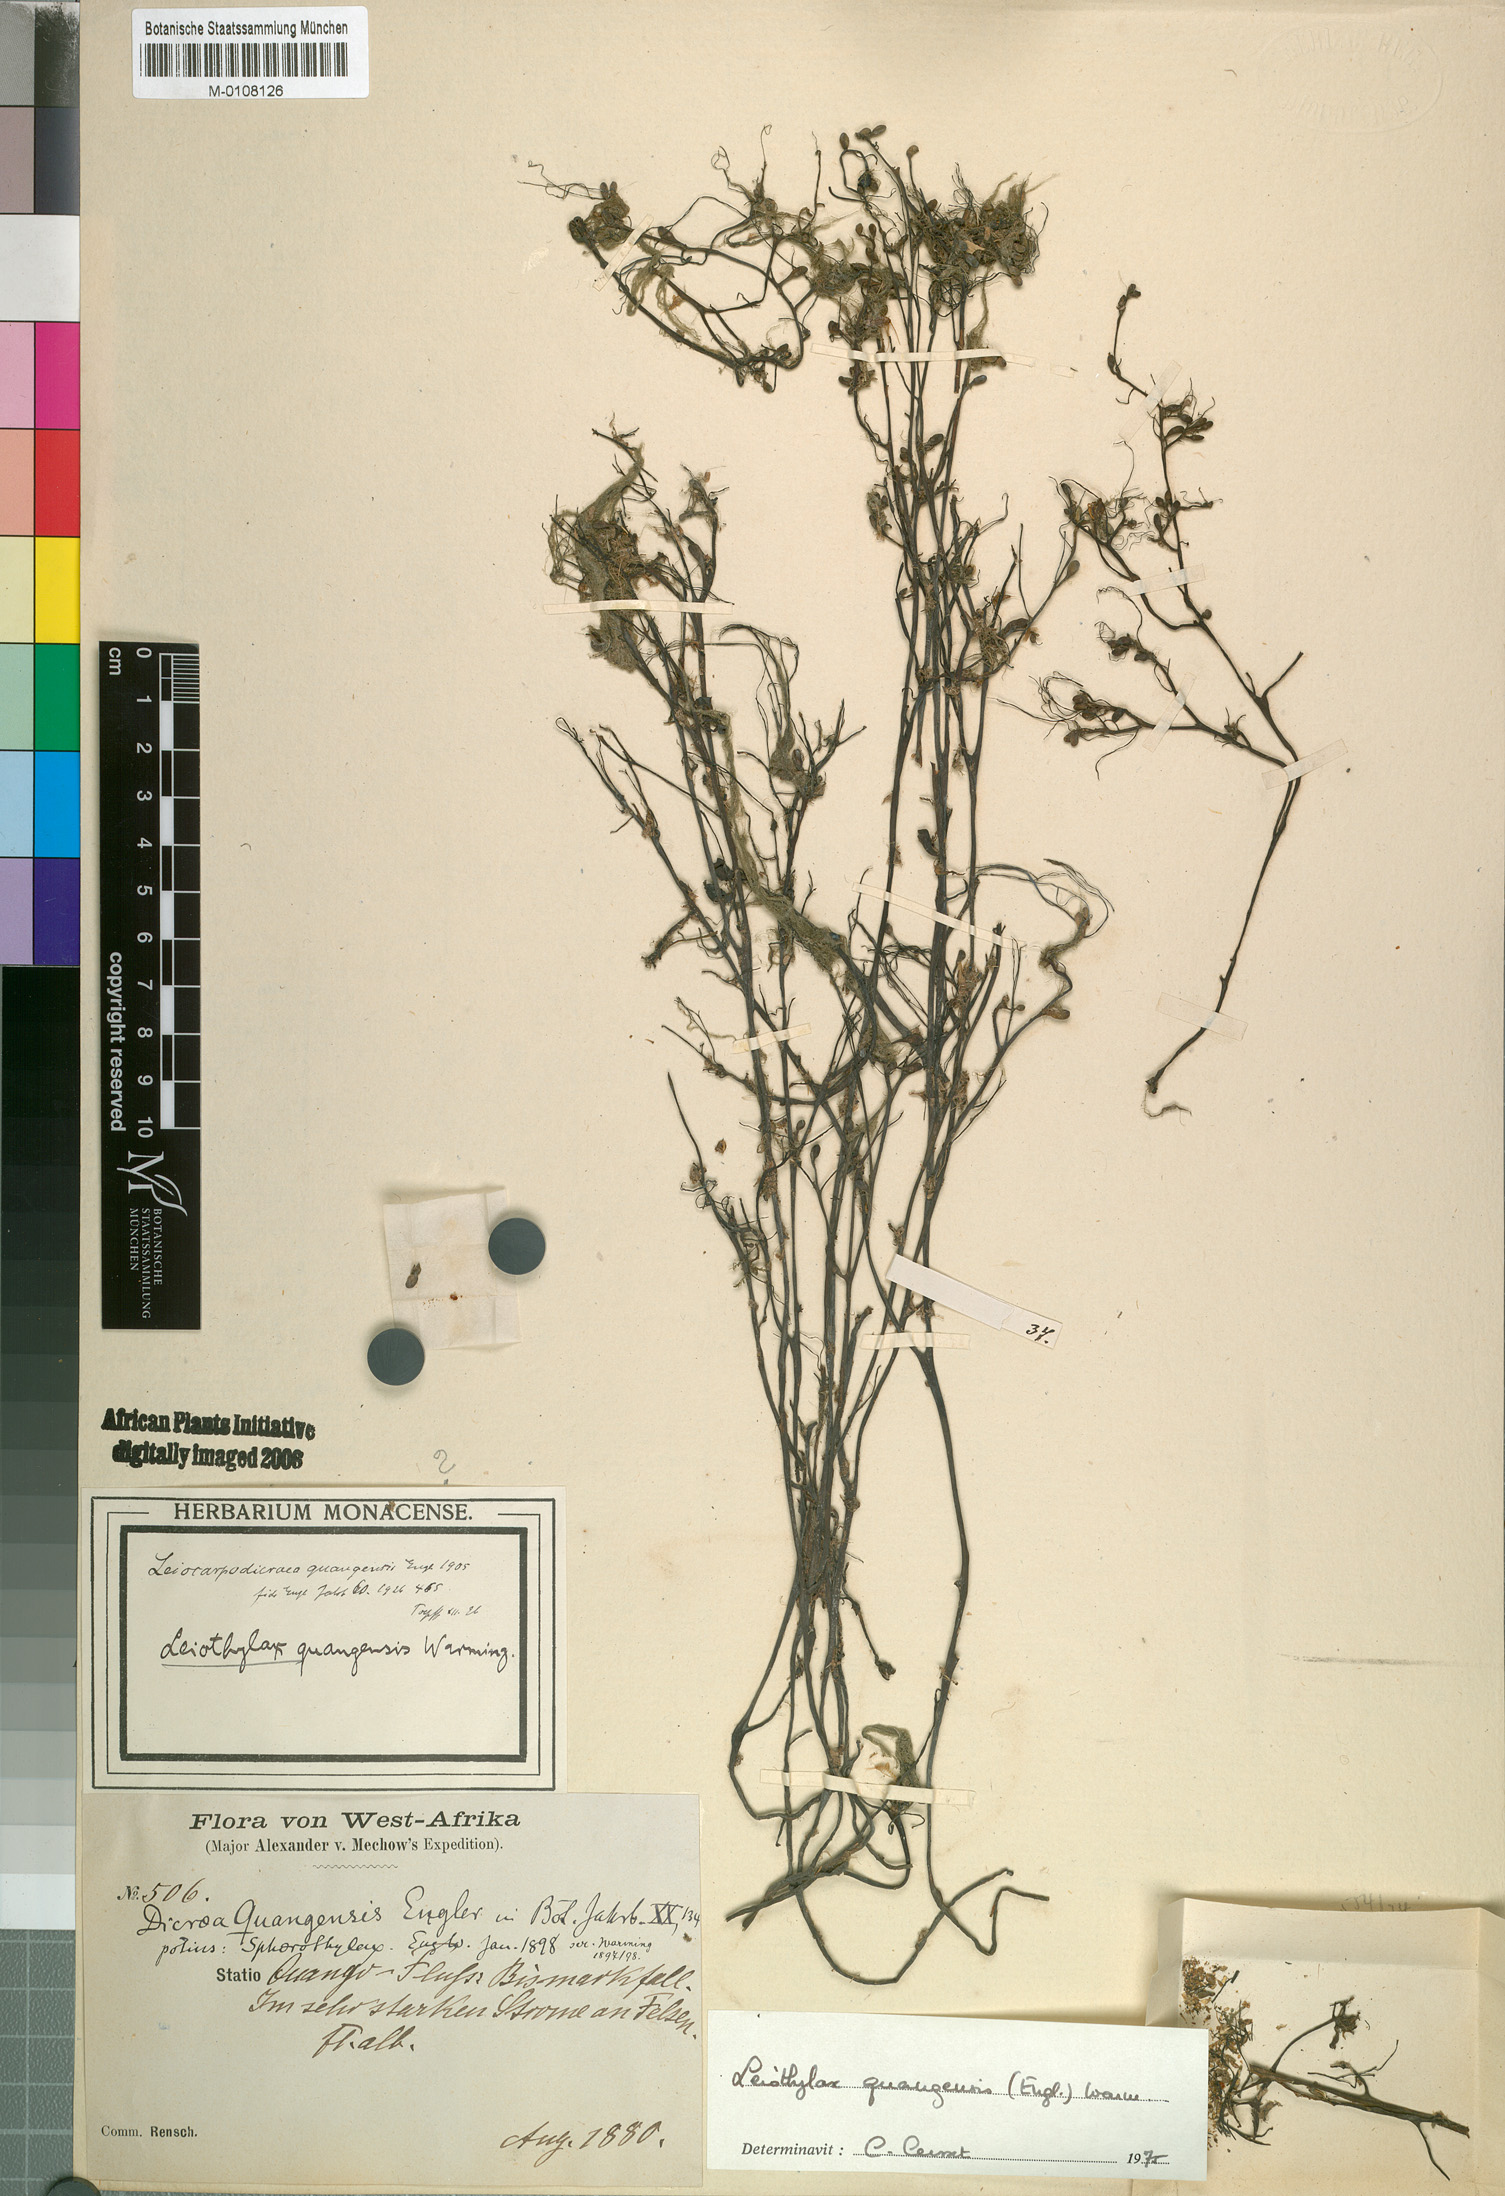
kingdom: Plantae
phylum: Tracheophyta
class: Magnoliopsida
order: Malpighiales
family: Podostemaceae
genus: Leiothylax
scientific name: Leiothylax quangensis
